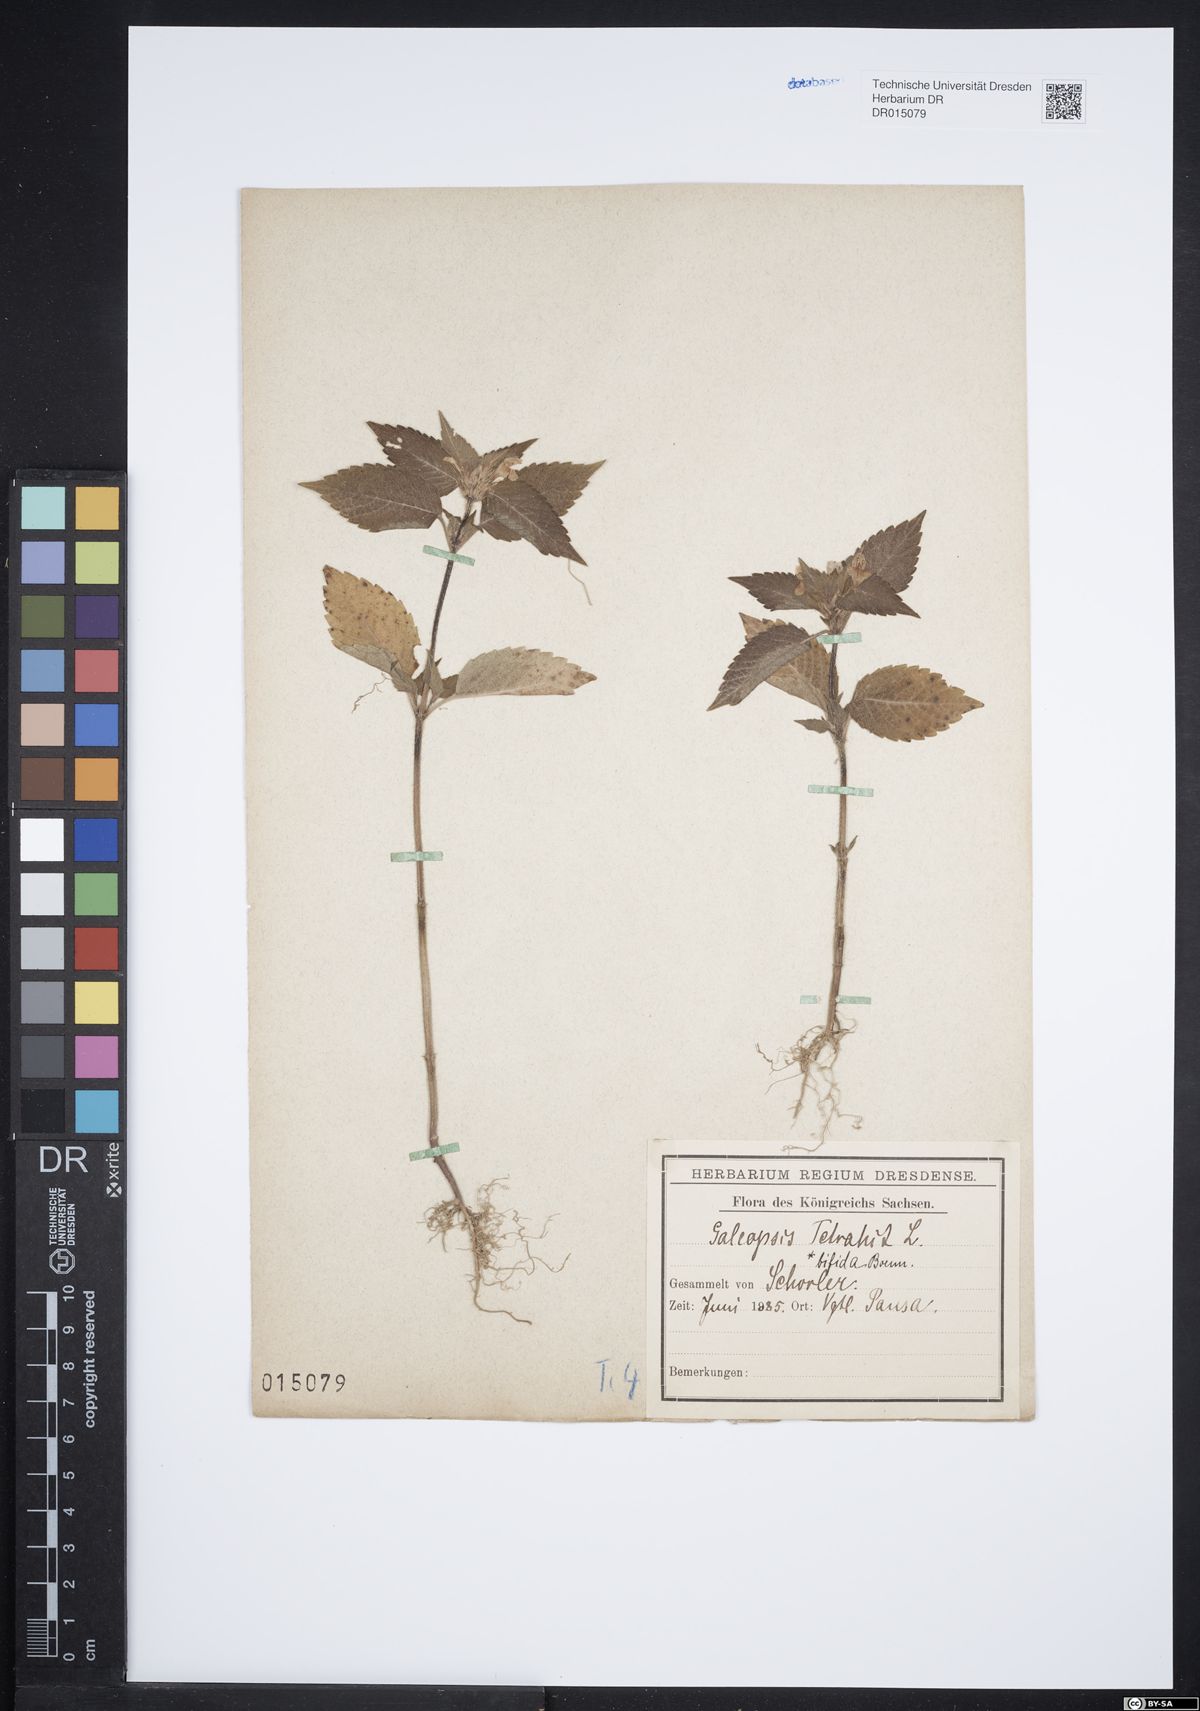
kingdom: Plantae
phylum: Tracheophyta
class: Magnoliopsida
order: Lamiales
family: Lamiaceae
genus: Galeopsis
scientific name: Galeopsis bifida
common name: Bifid hemp-nettle
